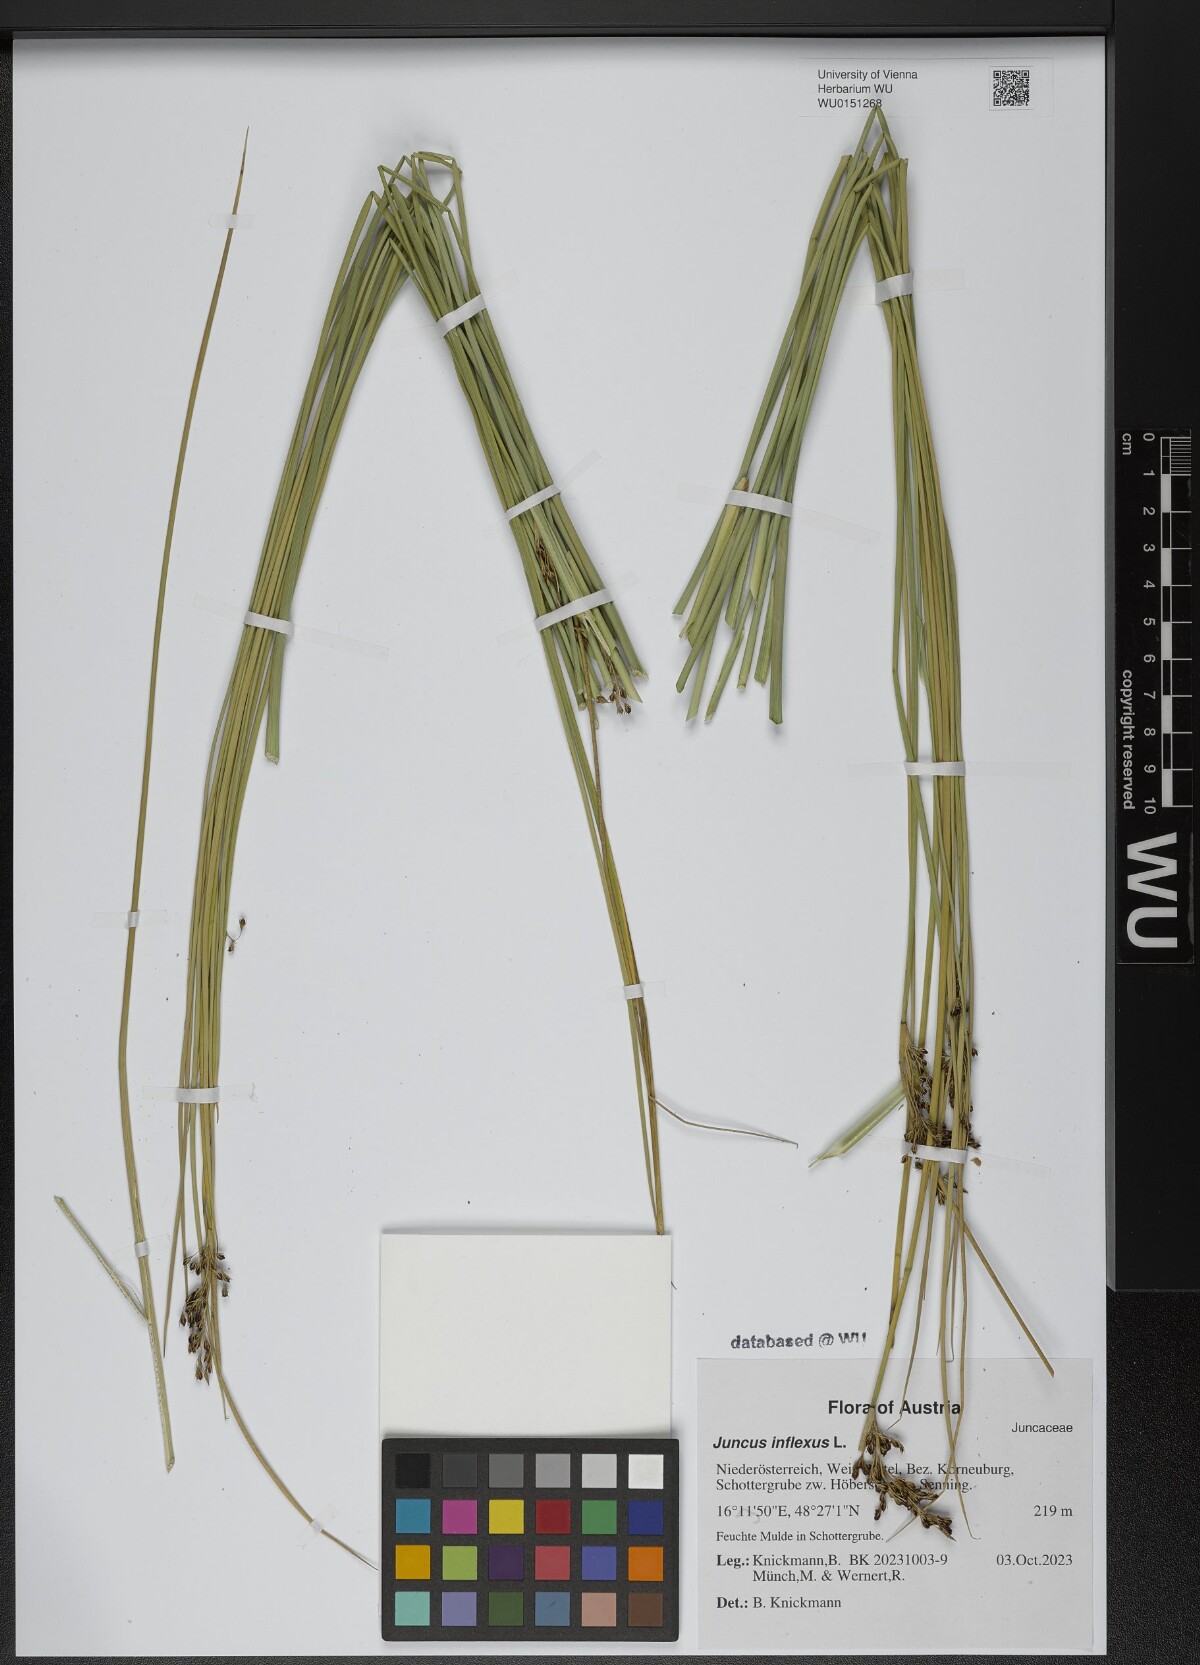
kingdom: Plantae
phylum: Tracheophyta
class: Liliopsida
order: Poales
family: Juncaceae
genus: Juncus
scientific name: Juncus inflexus
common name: Hard rush
